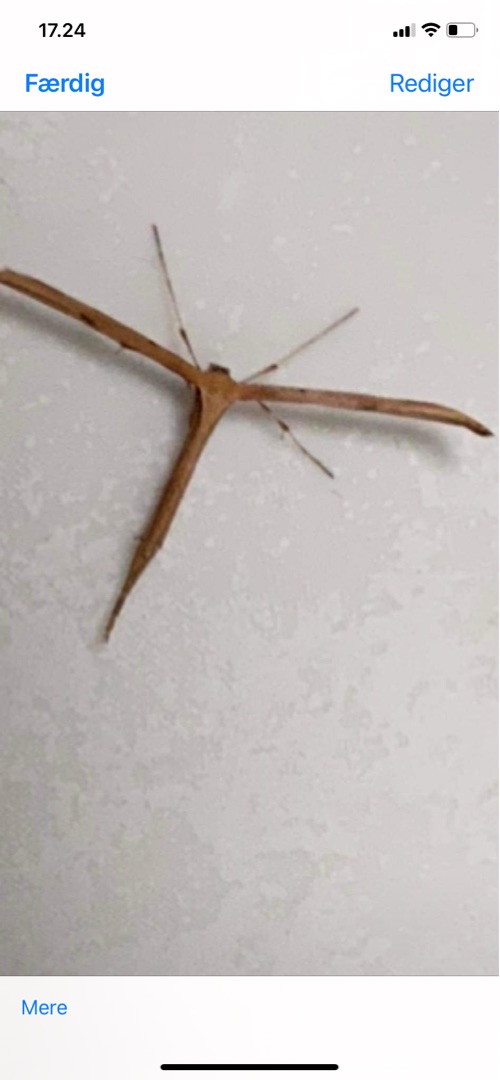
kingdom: Animalia
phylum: Arthropoda
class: Insecta
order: Lepidoptera
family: Pterophoridae
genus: Emmelina
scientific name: Emmelina monodactyla
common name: Snerlefjermøl
